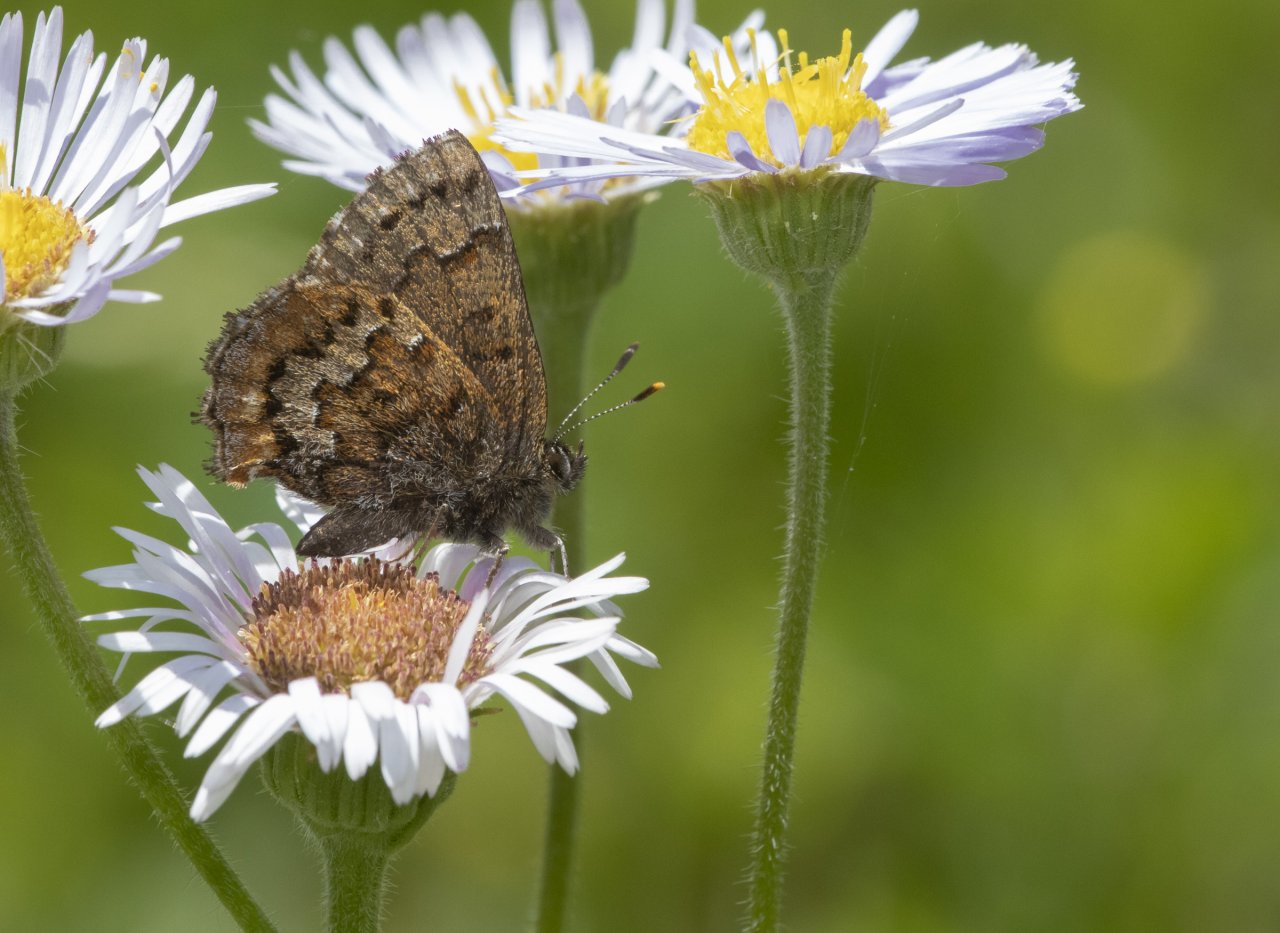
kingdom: Animalia
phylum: Arthropoda
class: Insecta
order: Lepidoptera
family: Lycaenidae
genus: Incisalia
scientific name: Incisalia niphon
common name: Eastern Pine Elfin
